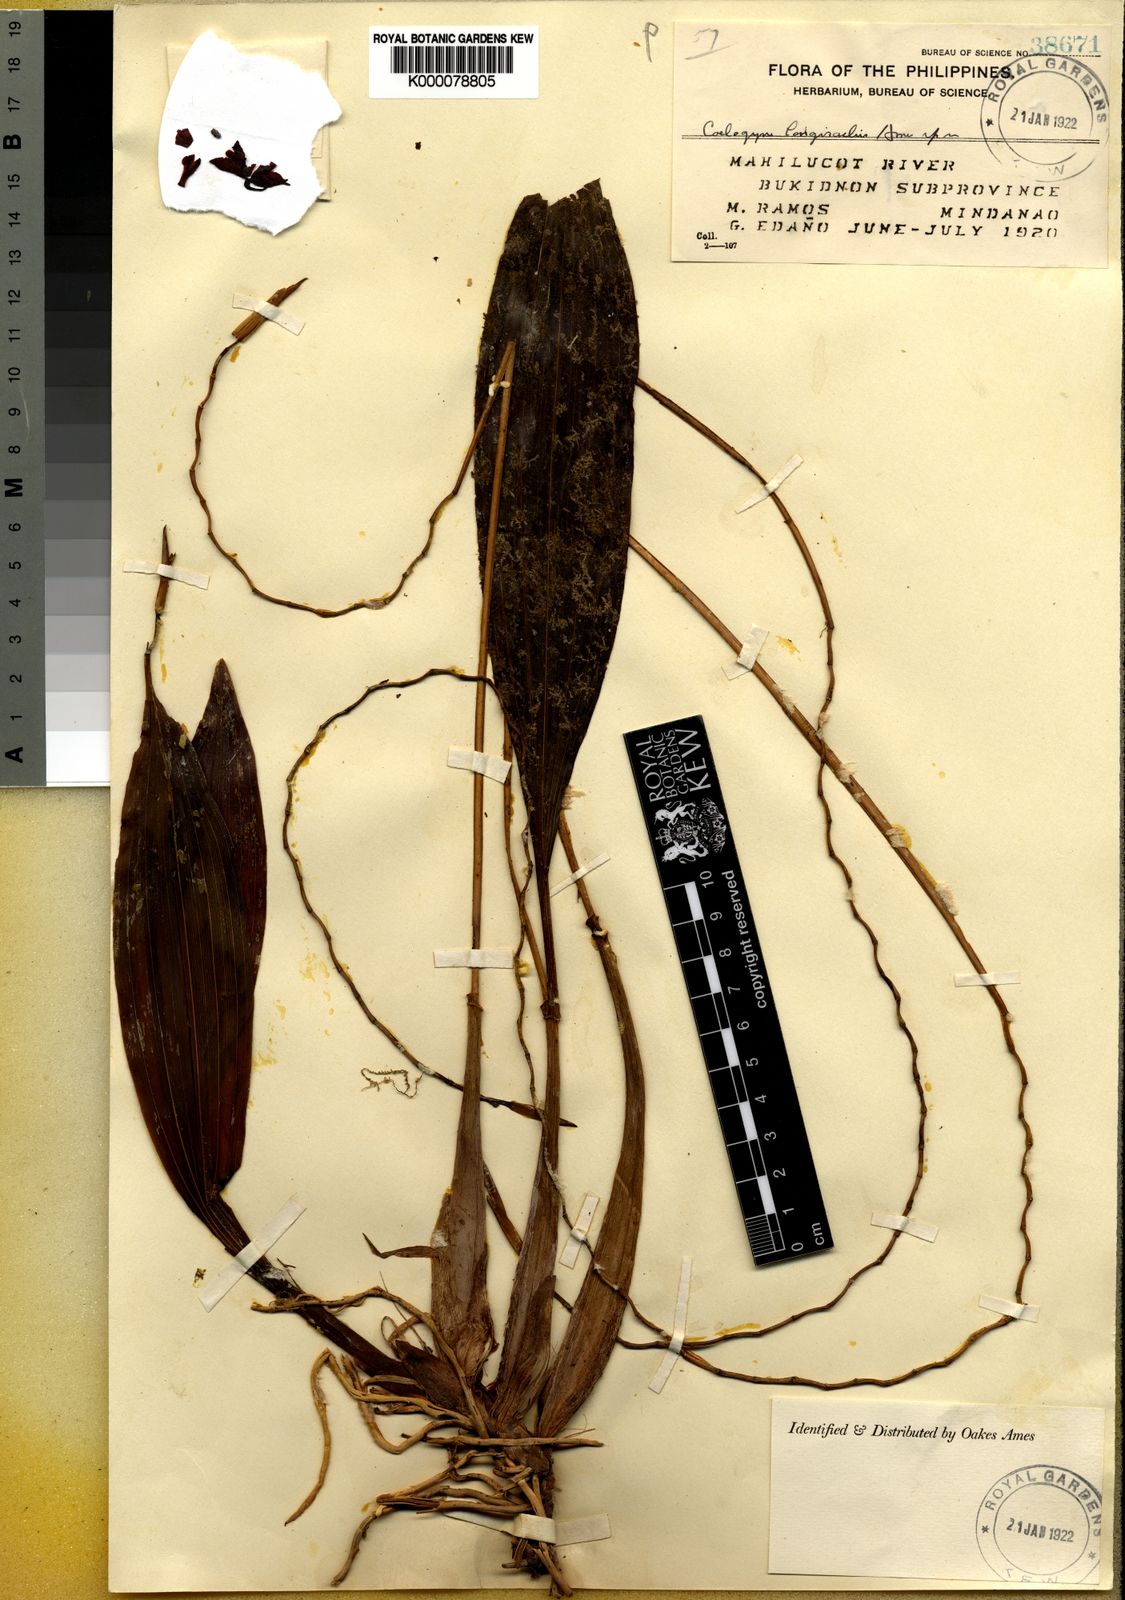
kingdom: Plantae
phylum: Tracheophyta
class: Liliopsida
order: Asparagales
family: Orchidaceae
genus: Coelogyne
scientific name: Coelogyne longirachis
